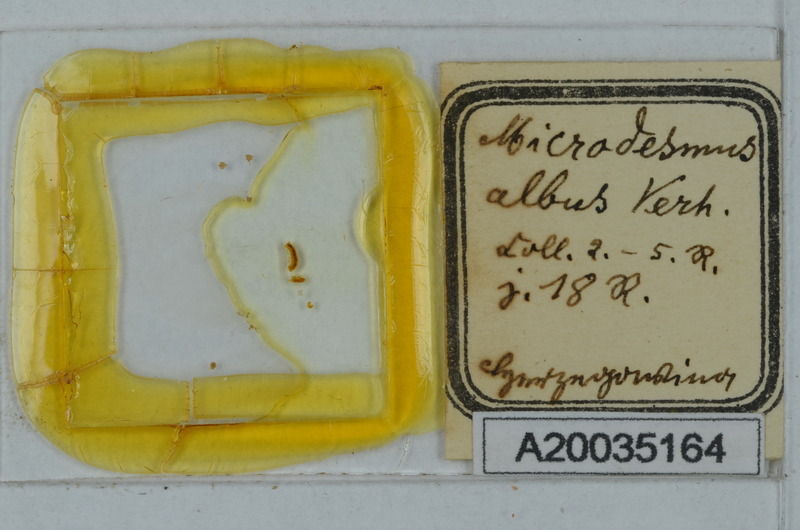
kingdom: Animalia
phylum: Arthropoda
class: Diplopoda
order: Polydesmida
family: Paradoxosomatidae
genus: Metonomastus
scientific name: Metonomastus albus
